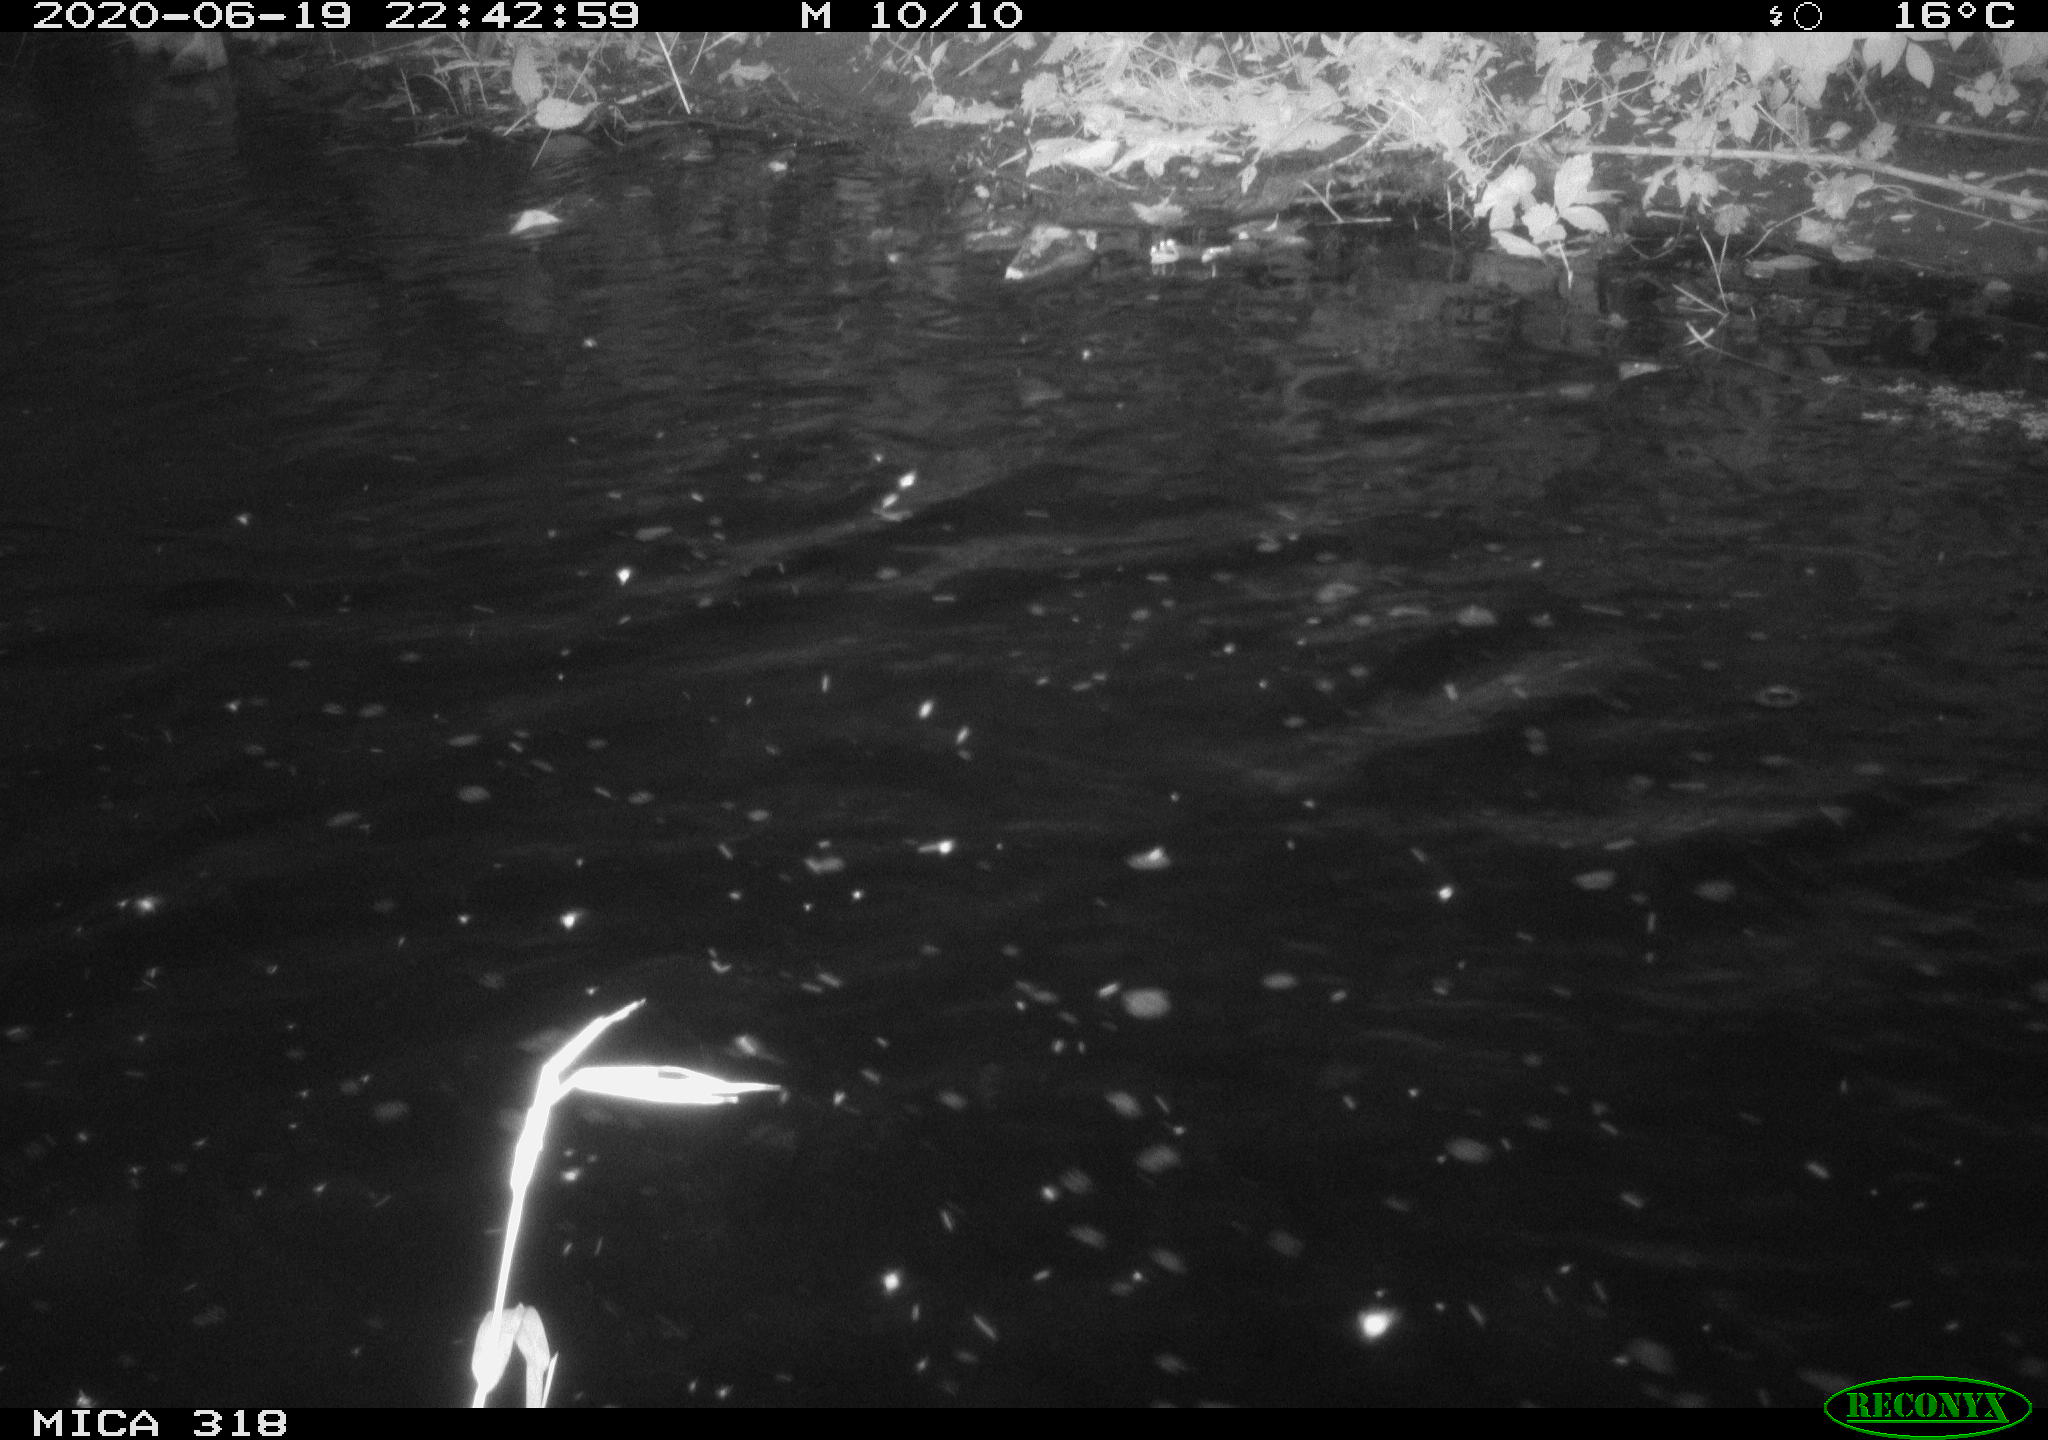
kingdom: Animalia
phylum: Chordata
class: Aves
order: Anseriformes
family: Anatidae
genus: Anas
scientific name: Anas platyrhynchos
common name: Mallard
